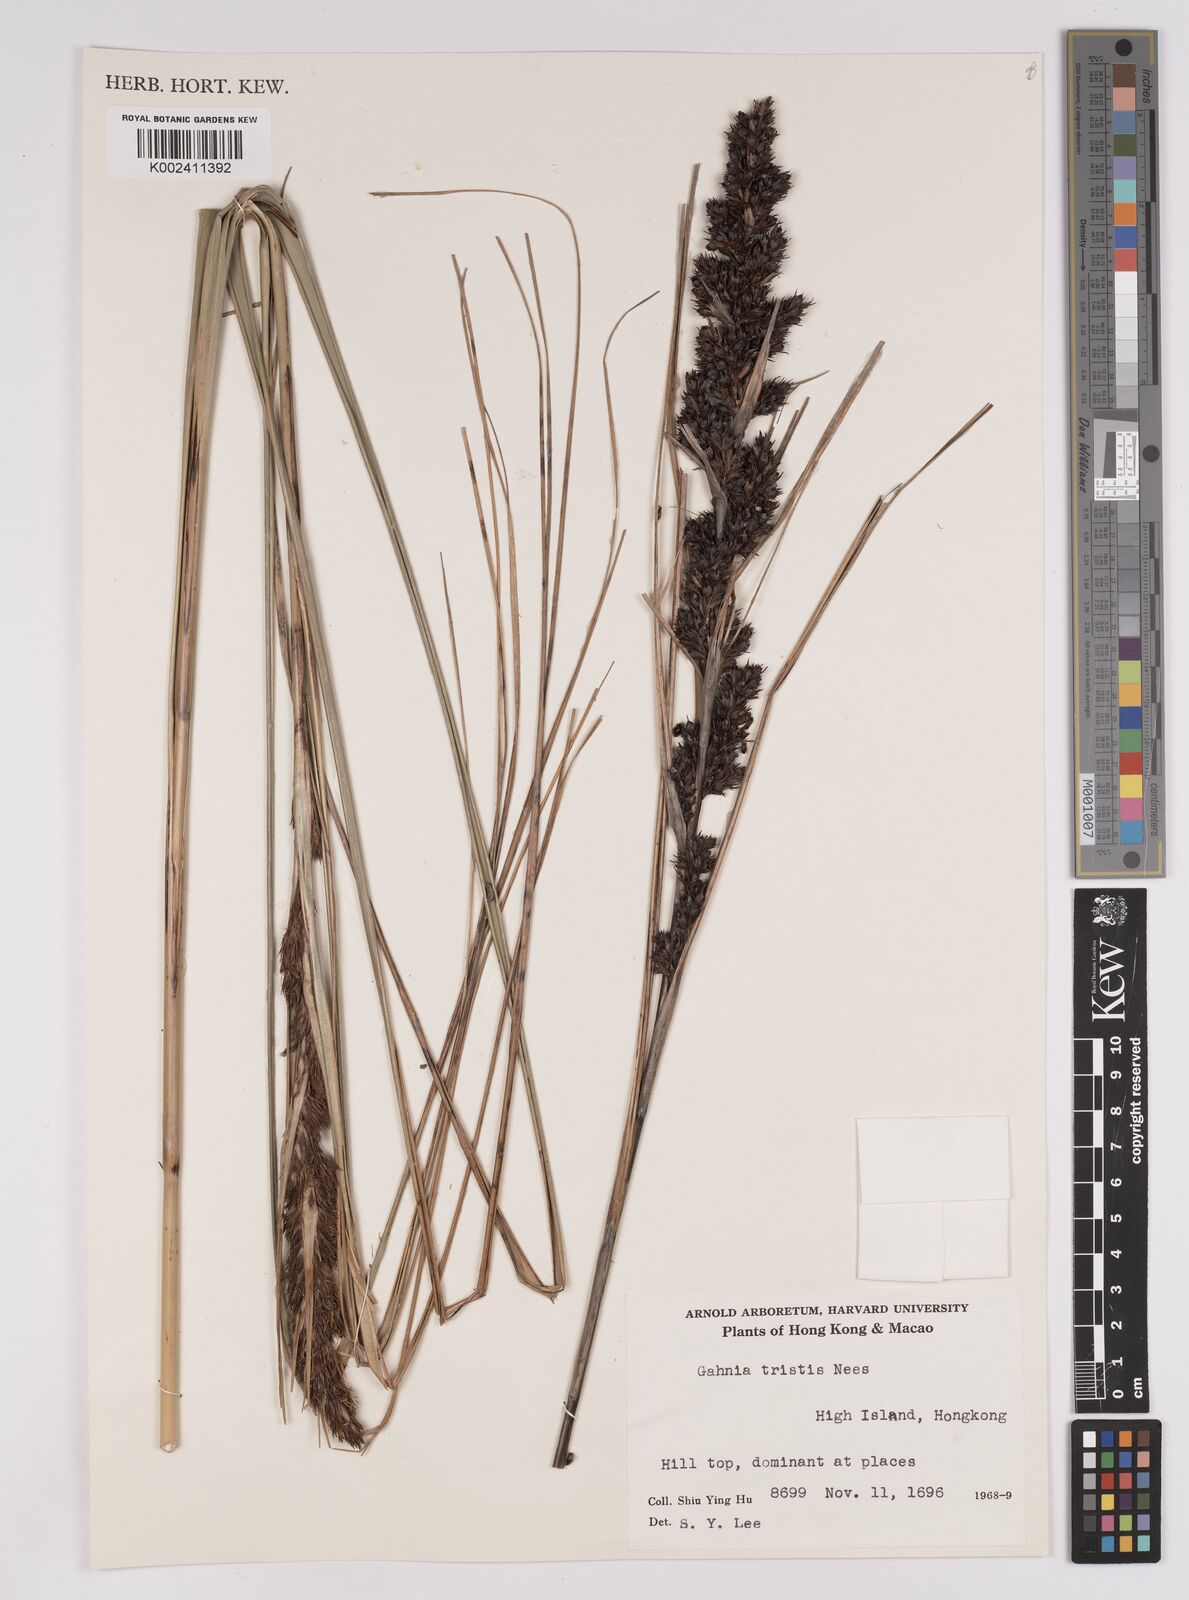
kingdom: Plantae
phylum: Tracheophyta
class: Liliopsida
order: Poales
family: Cyperaceae
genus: Gahnia
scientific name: Gahnia tristis
